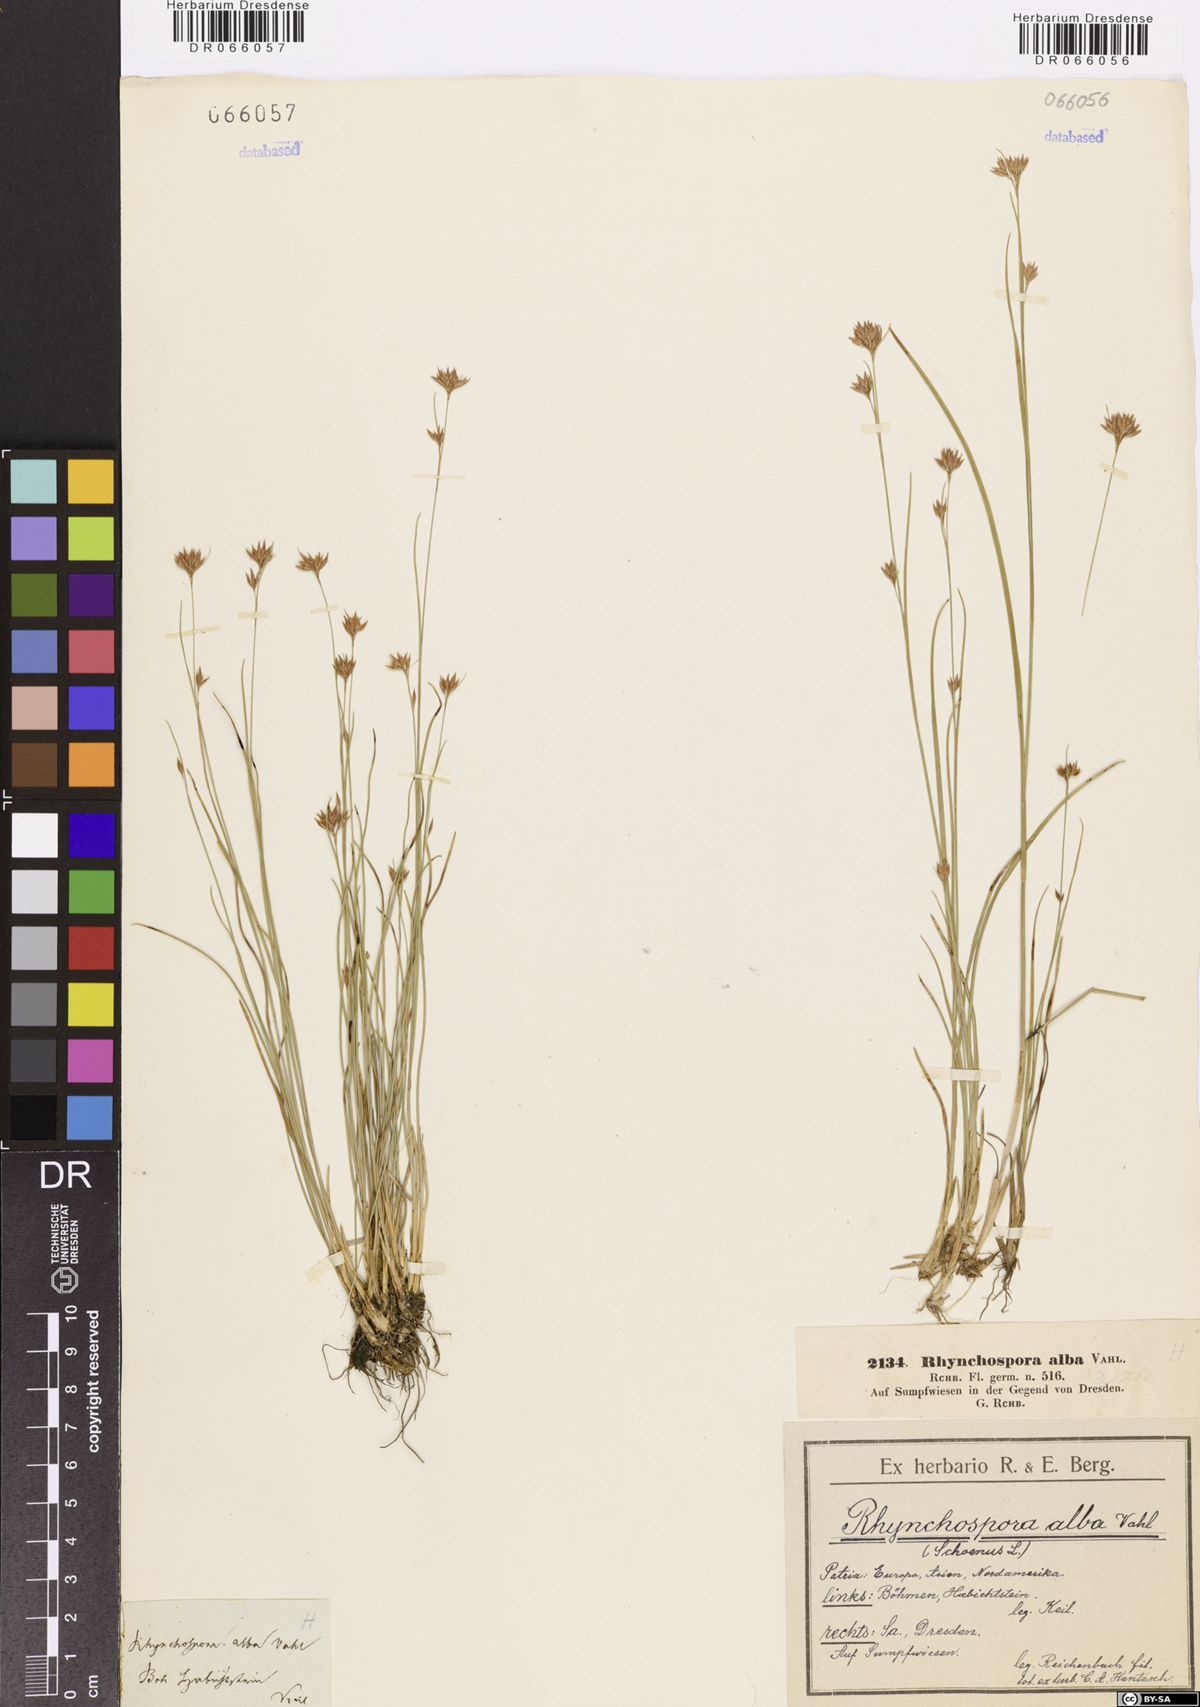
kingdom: Plantae
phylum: Tracheophyta
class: Liliopsida
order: Poales
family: Cyperaceae
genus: Rhynchospora
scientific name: Rhynchospora alba
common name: White beak-sedge
